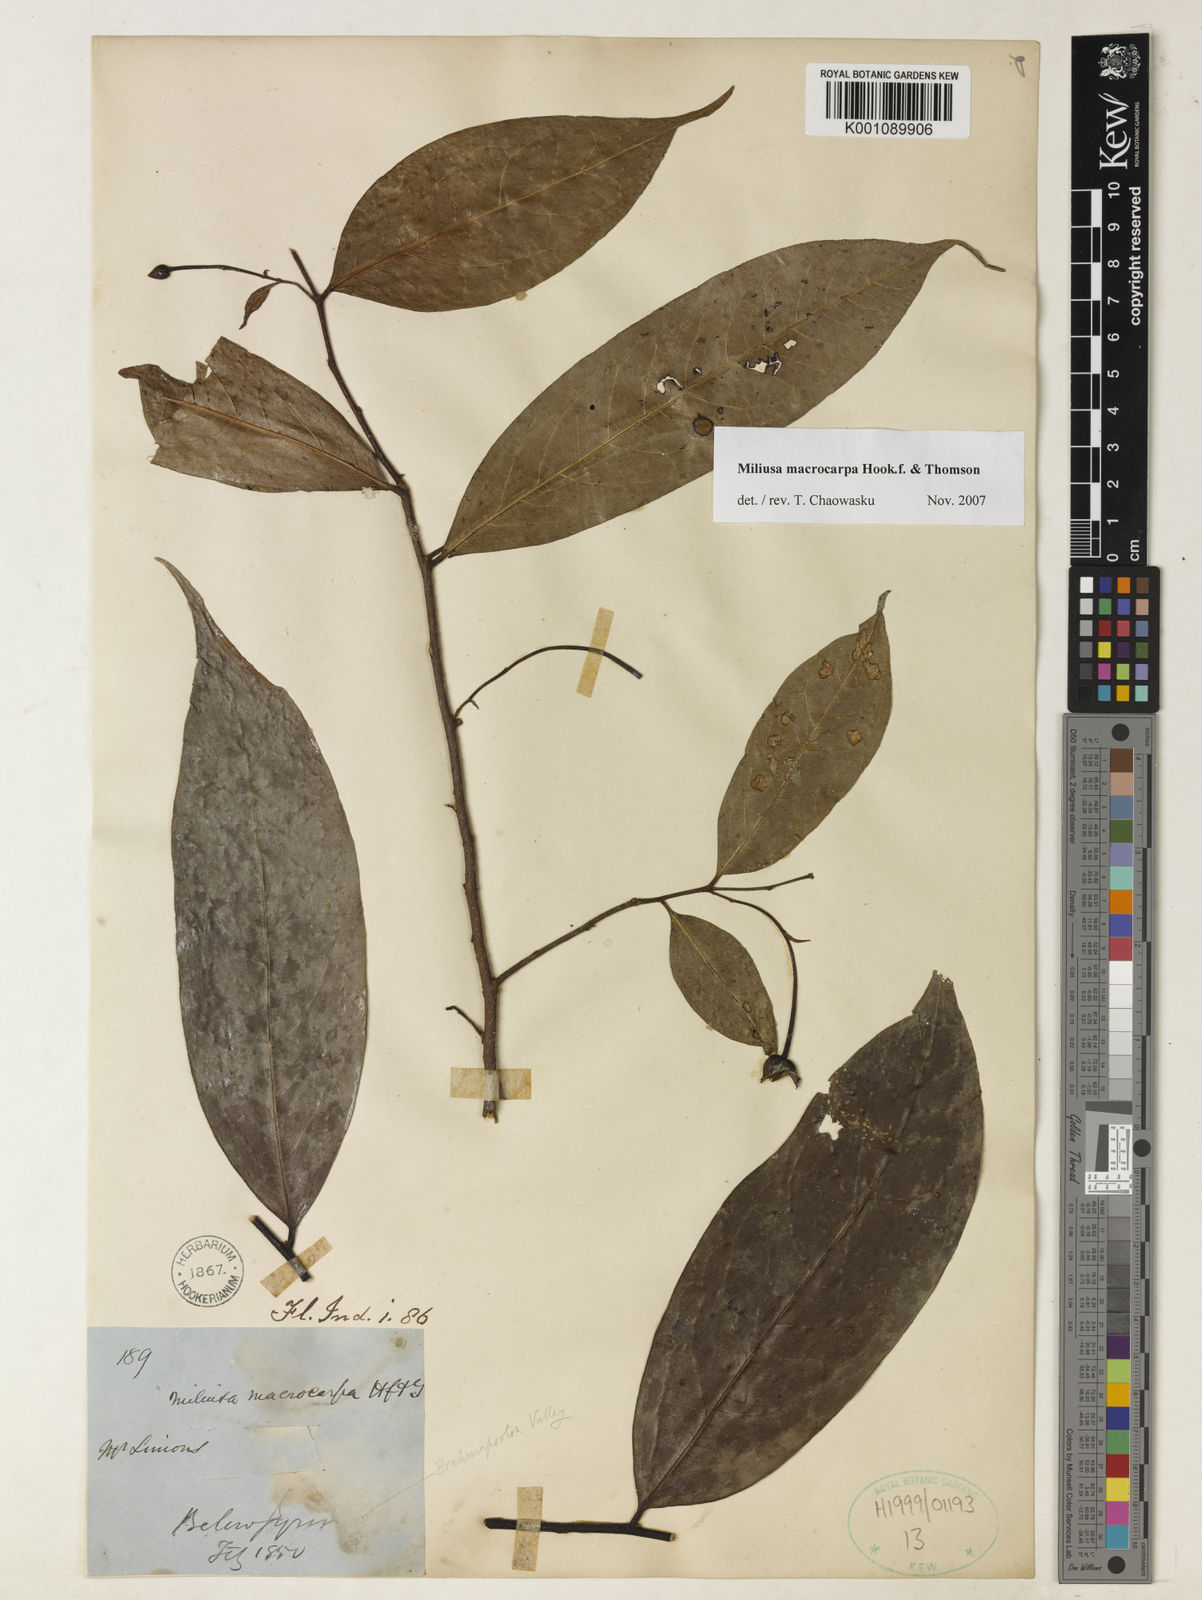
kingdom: Plantae
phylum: Tracheophyta
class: Magnoliopsida
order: Magnoliales
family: Annonaceae
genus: Miliusa
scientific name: Miliusa macrocarpa
